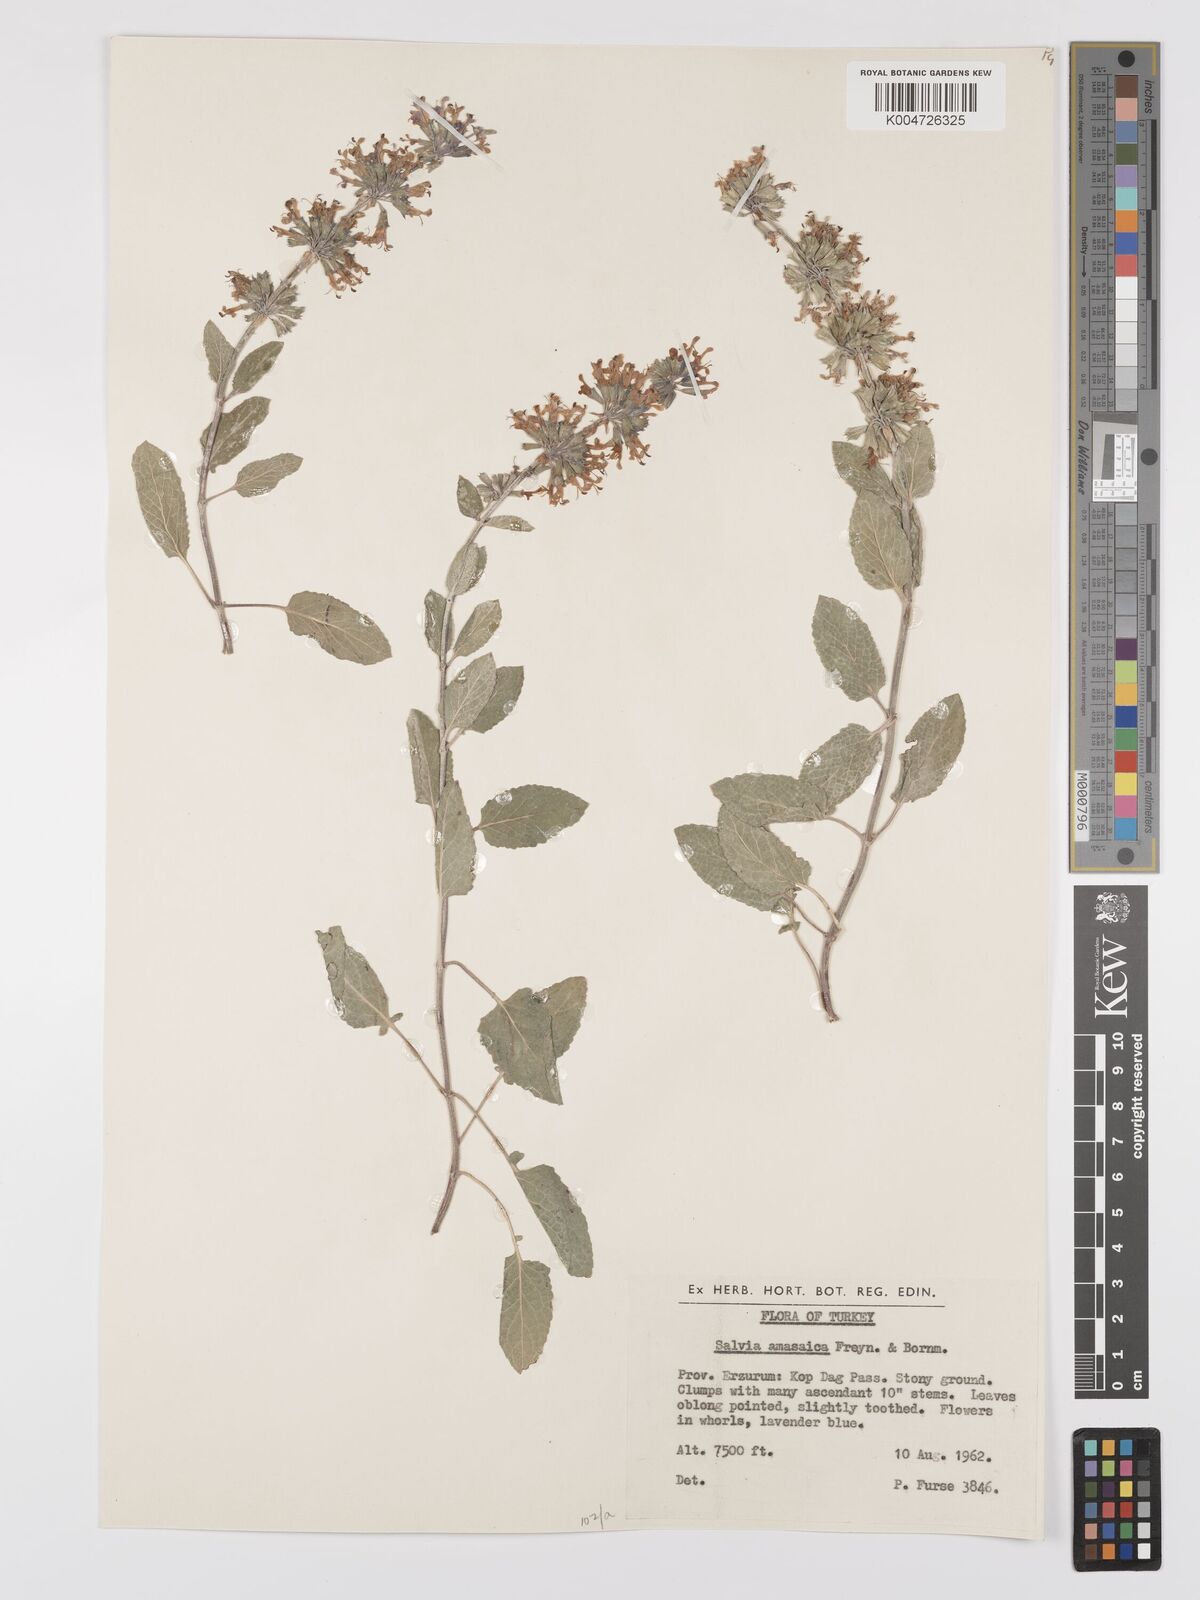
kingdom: Plantae
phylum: Tracheophyta
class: Magnoliopsida
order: Lamiales
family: Lamiaceae
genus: Salvia
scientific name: Salvia verticillata
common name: Whorled clary
